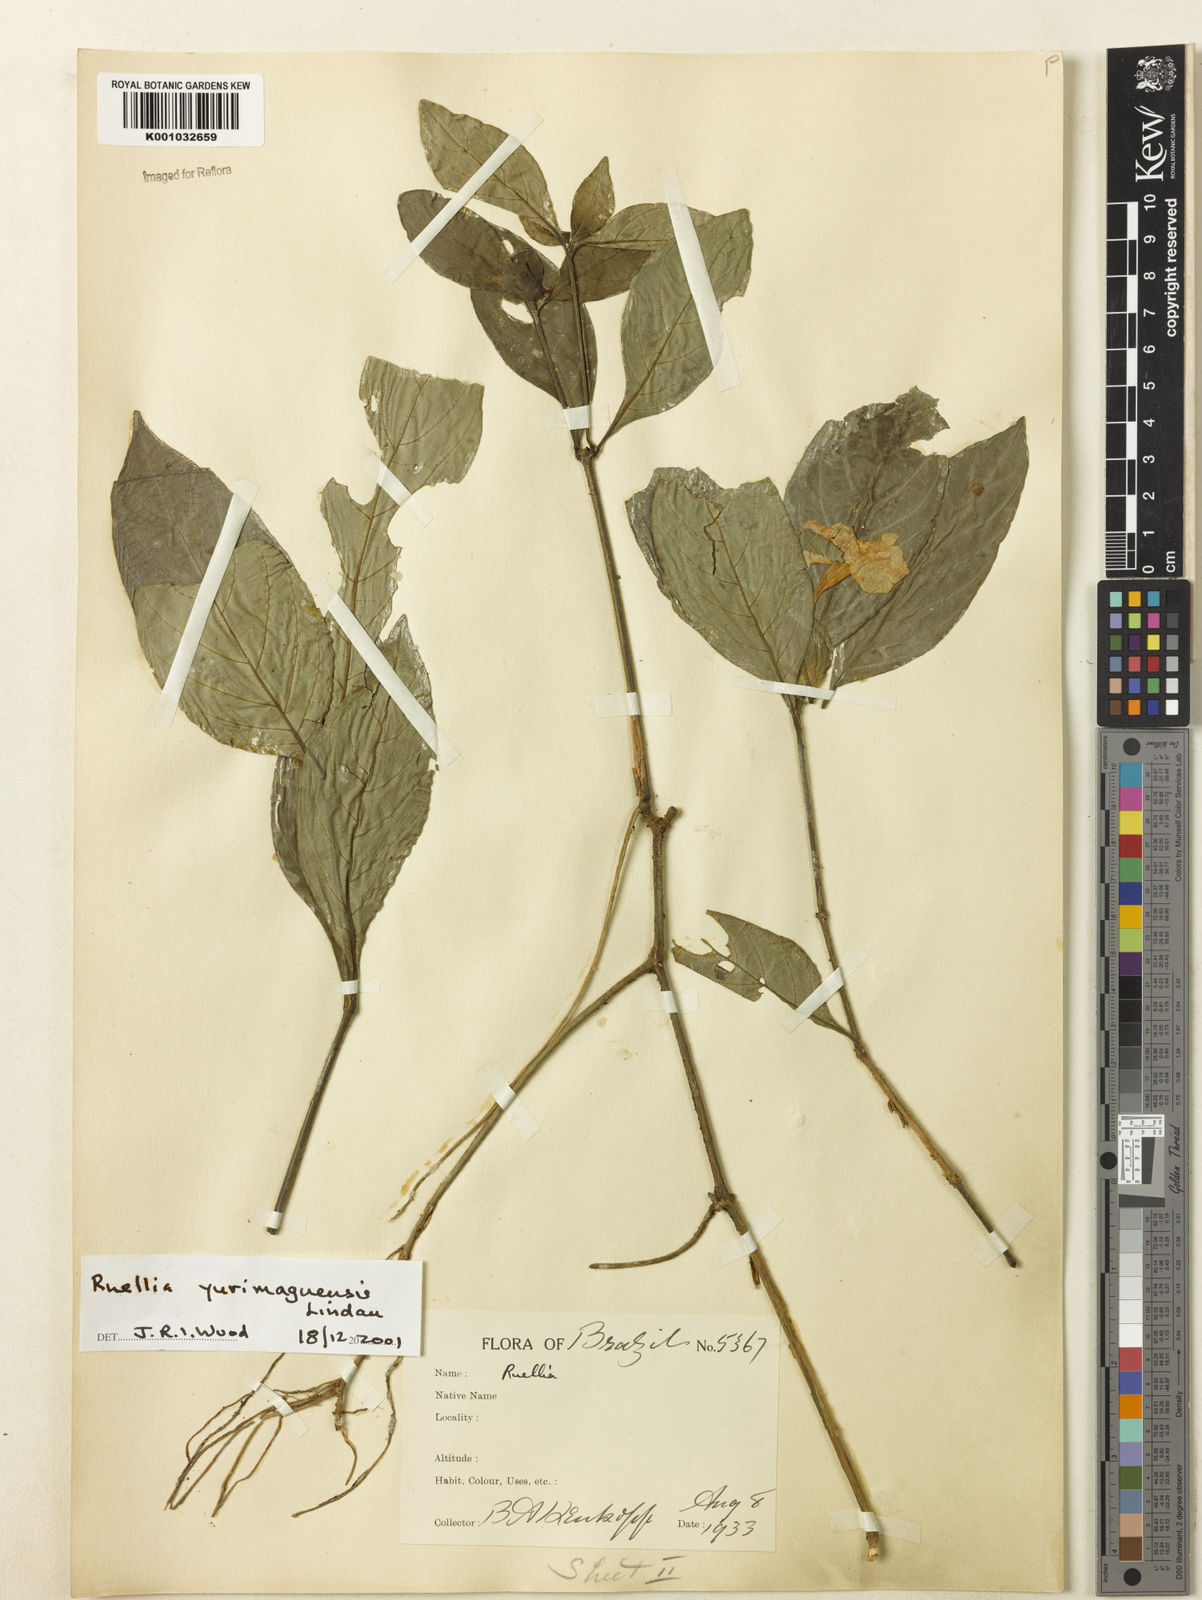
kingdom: Plantae
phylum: Tracheophyta
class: Magnoliopsida
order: Lamiales
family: Acanthaceae
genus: Ruellia
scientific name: Ruellia yurimaguensis
